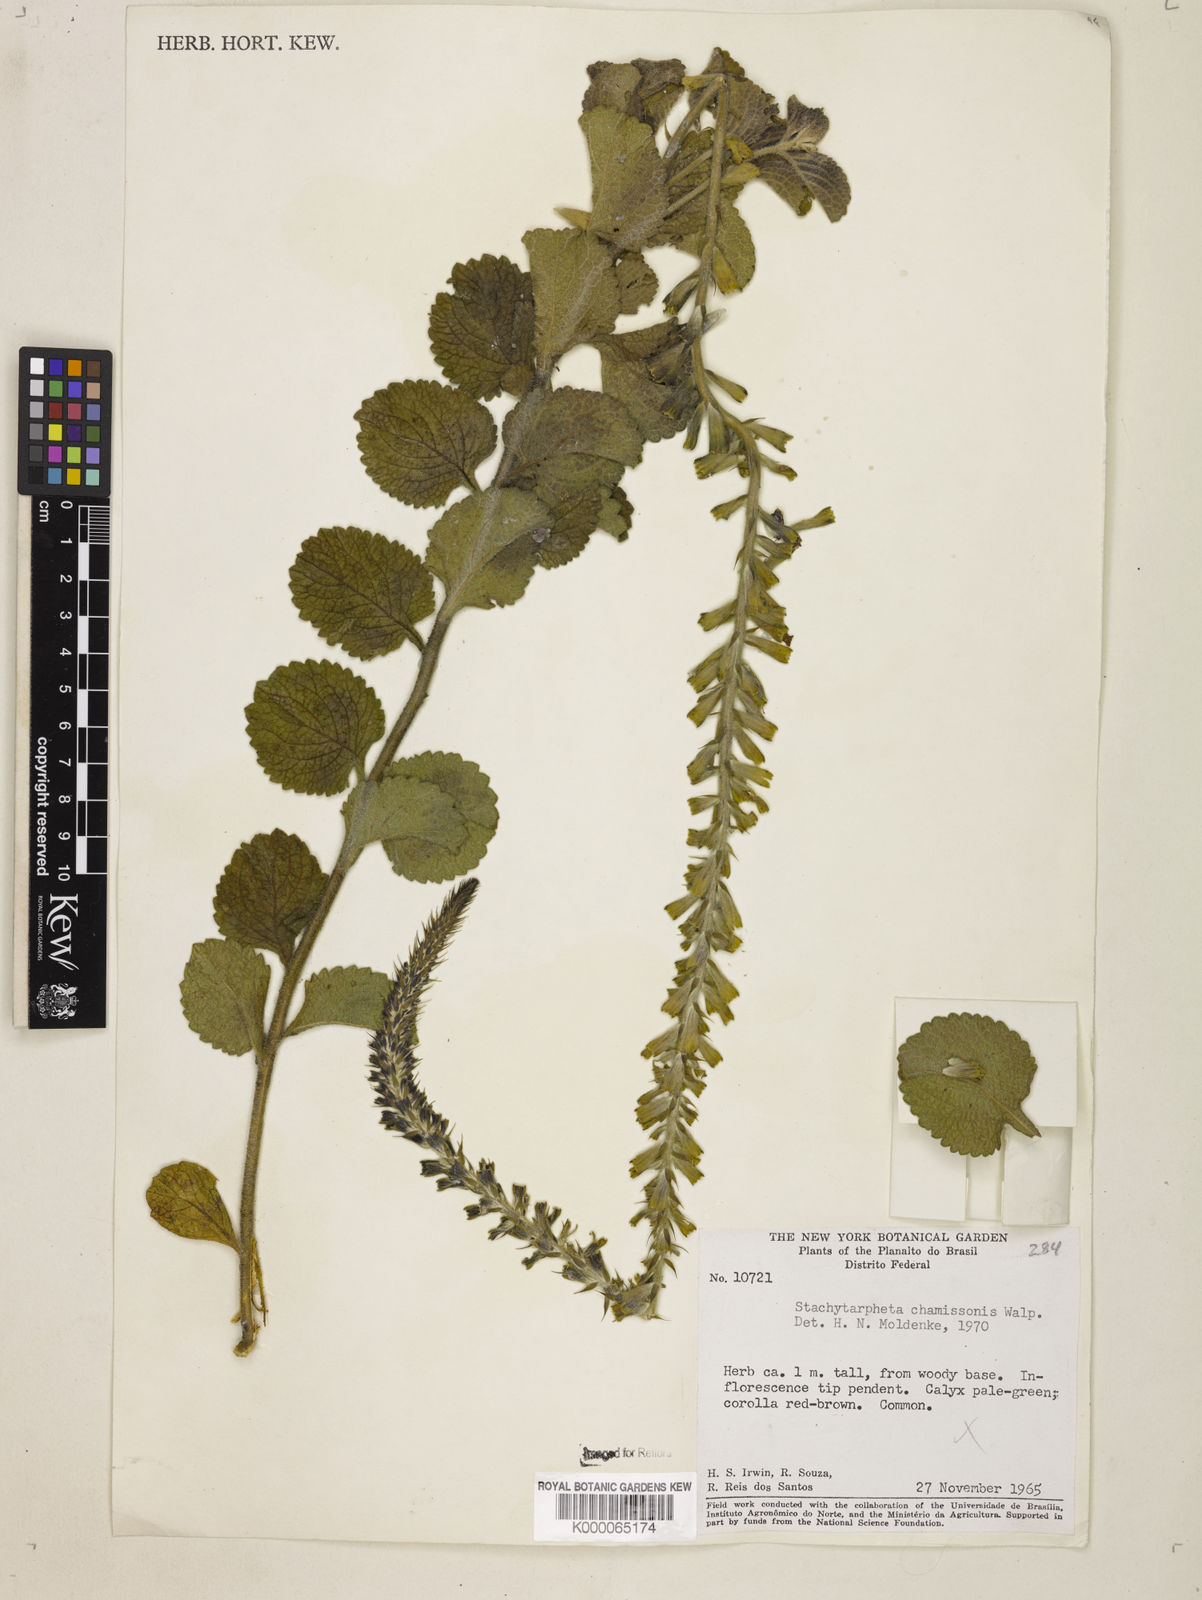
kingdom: Plantae
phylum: Tracheophyta
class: Magnoliopsida
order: Lamiales
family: Verbenaceae
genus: Stachytarpheta
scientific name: Stachytarpheta longispicata
